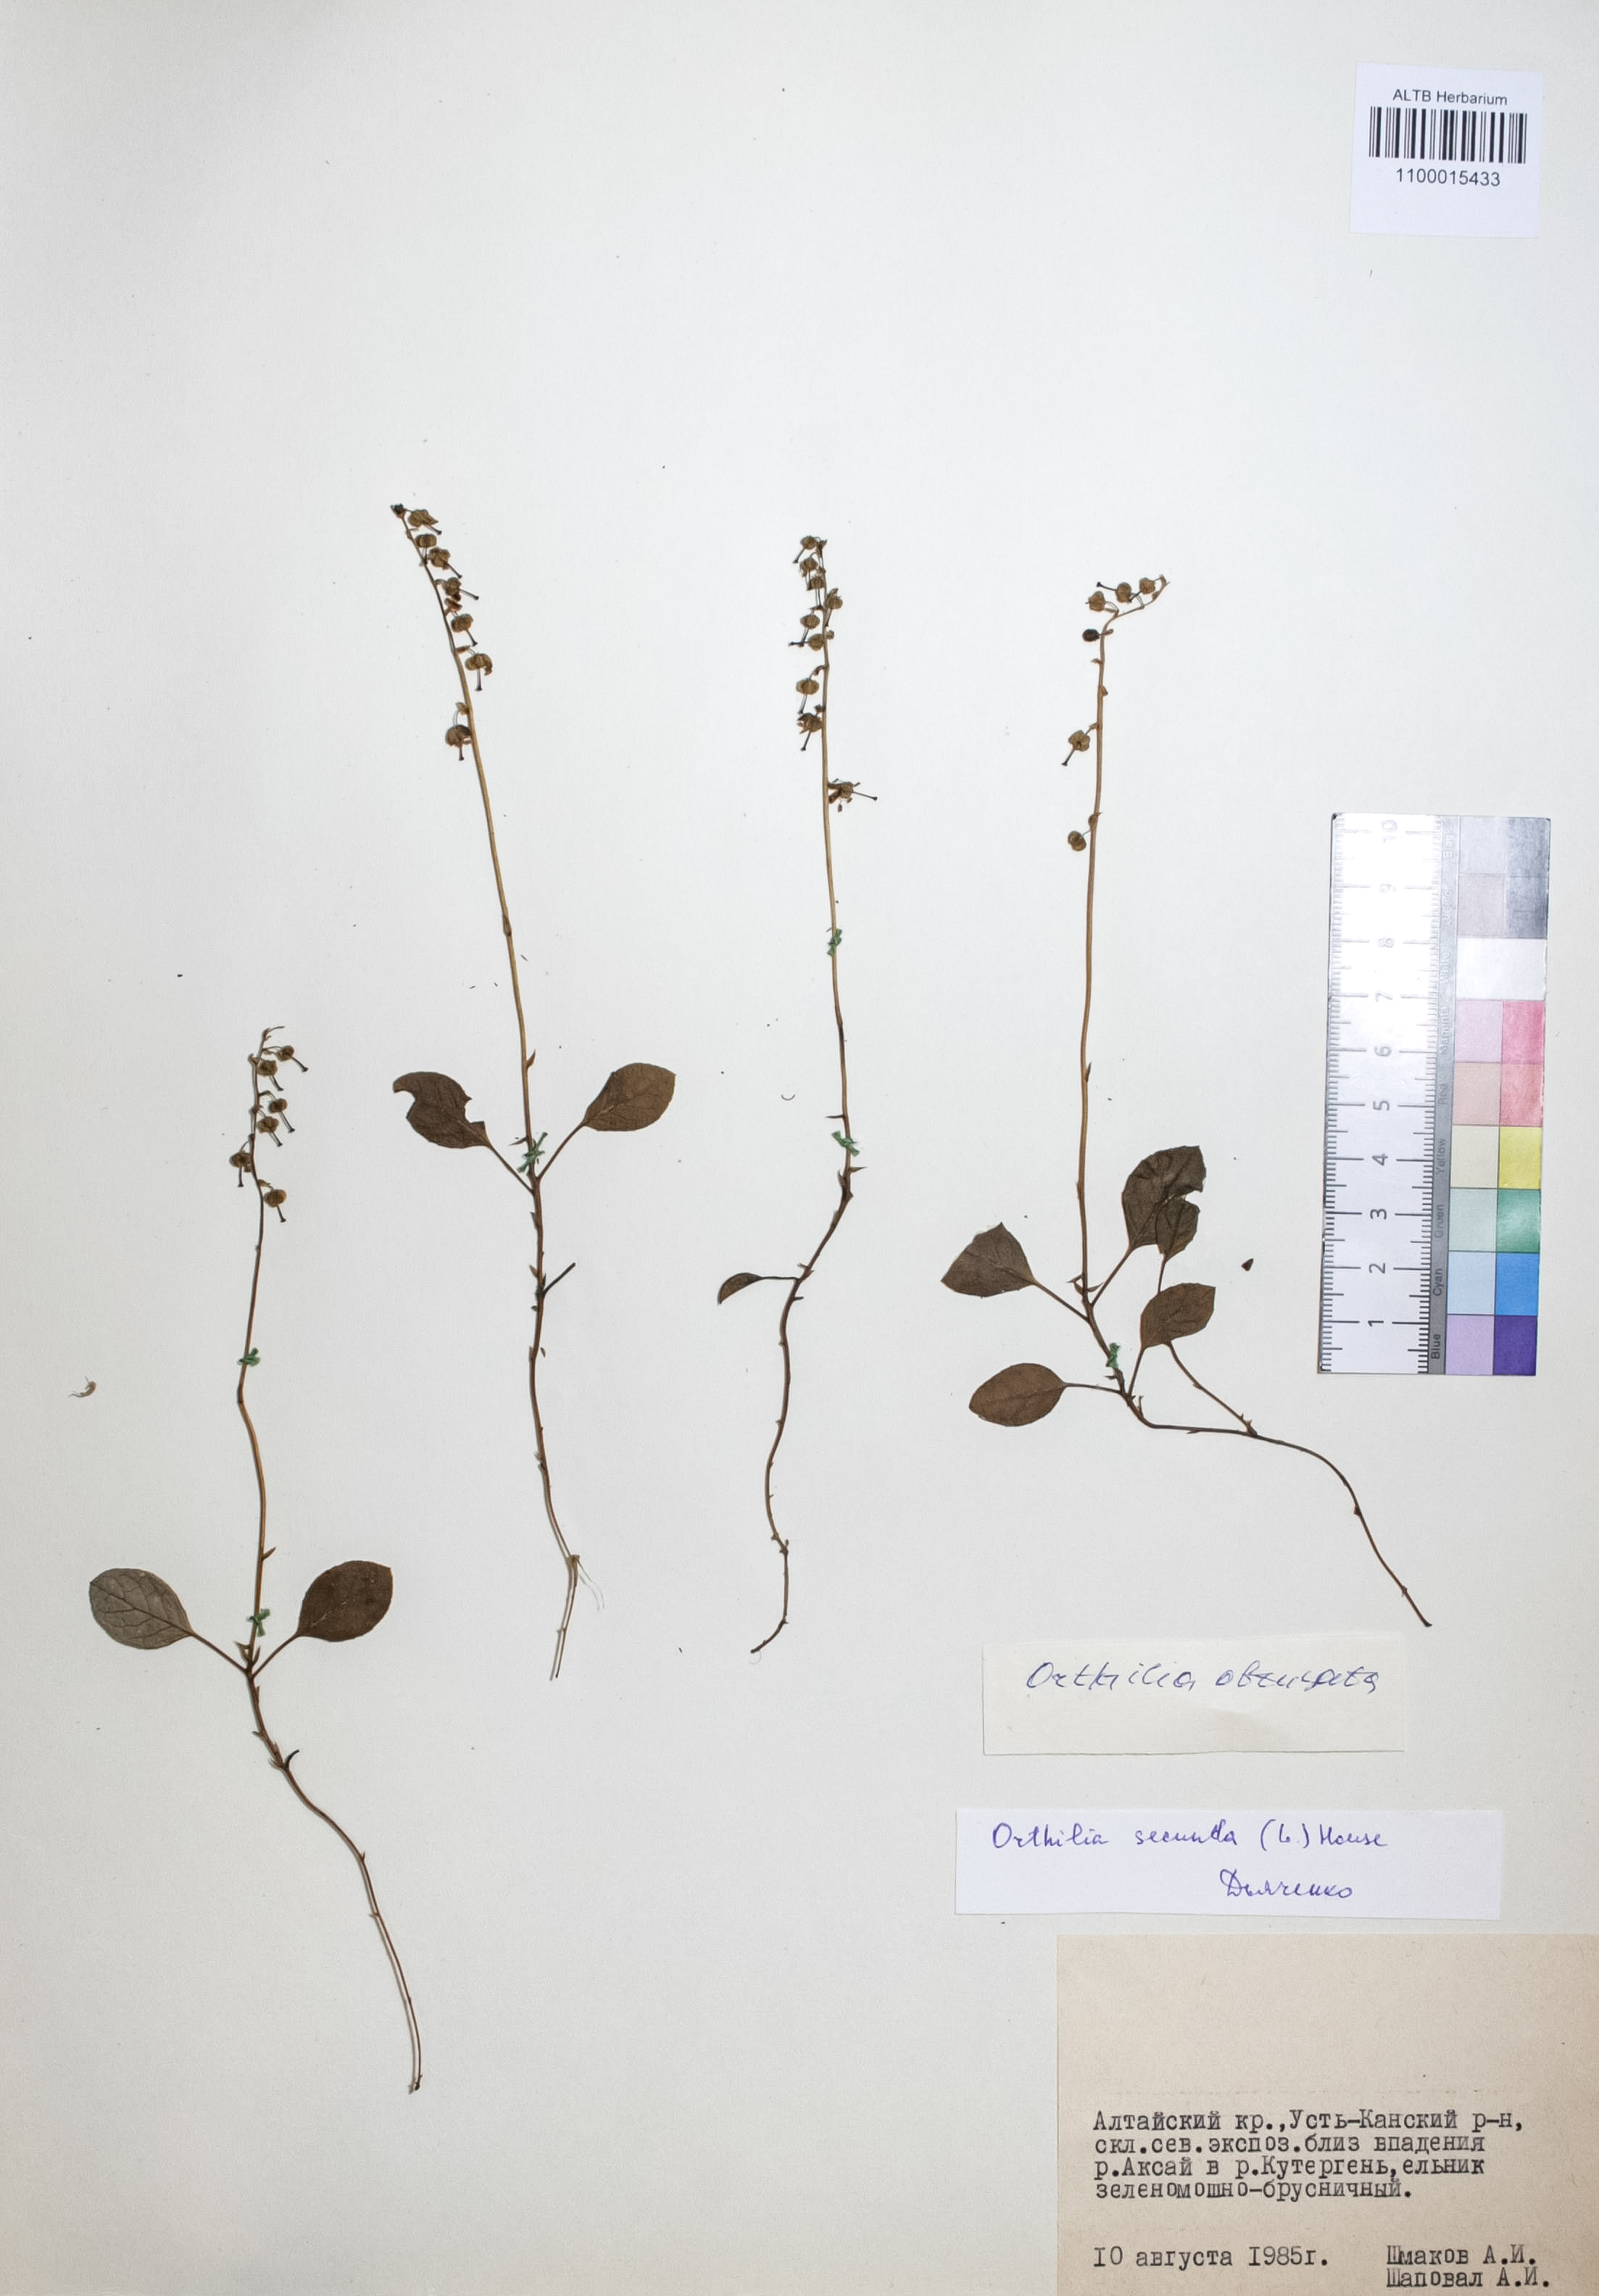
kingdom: Plantae
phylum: Tracheophyta
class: Magnoliopsida
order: Ericales
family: Ericaceae
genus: Orthilia
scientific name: Orthilia secunda
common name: One-sided orthilia
